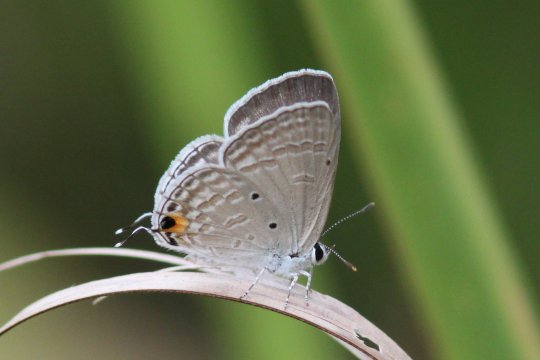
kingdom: Animalia
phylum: Arthropoda
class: Insecta
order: Lepidoptera
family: Lycaenidae
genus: Catochrysops
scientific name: Catochrysops panormus
